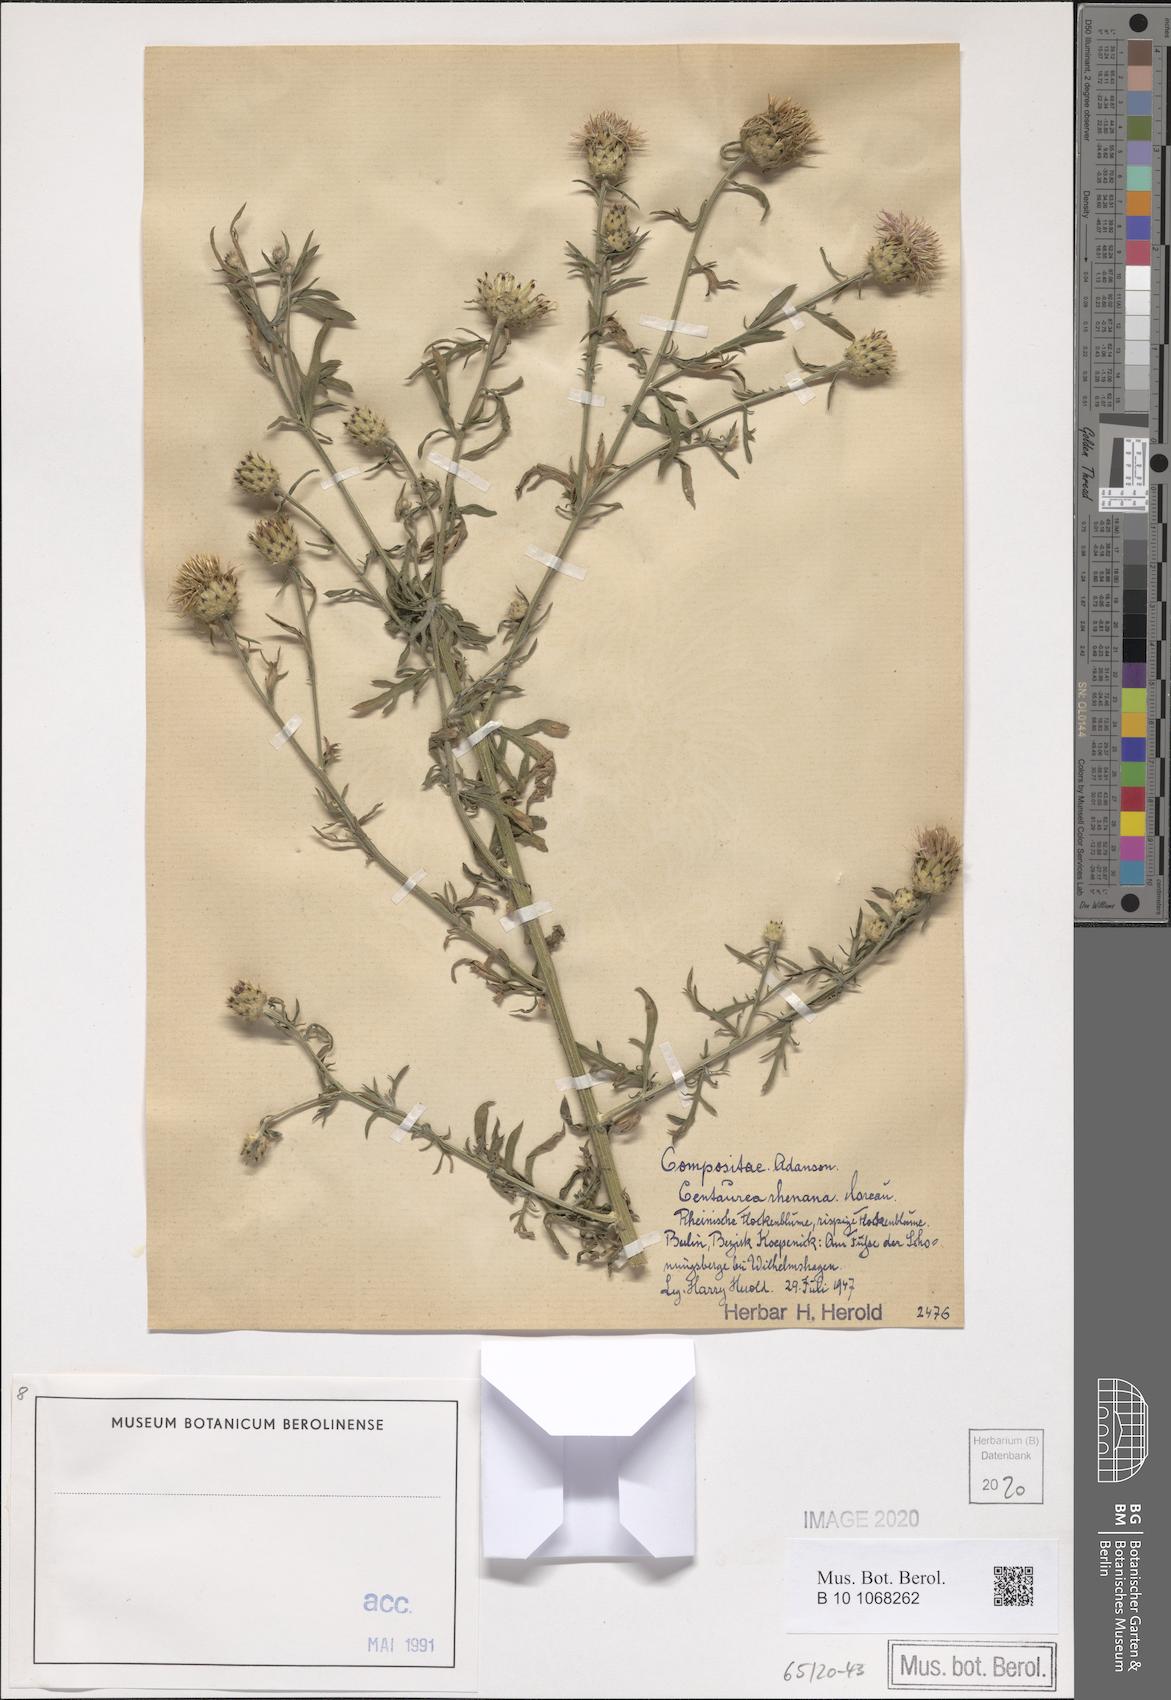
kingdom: Plantae
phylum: Tracheophyta
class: Magnoliopsida
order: Asterales
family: Asteraceae
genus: Centaurea
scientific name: Centaurea stoebe
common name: Spotted knapweed
